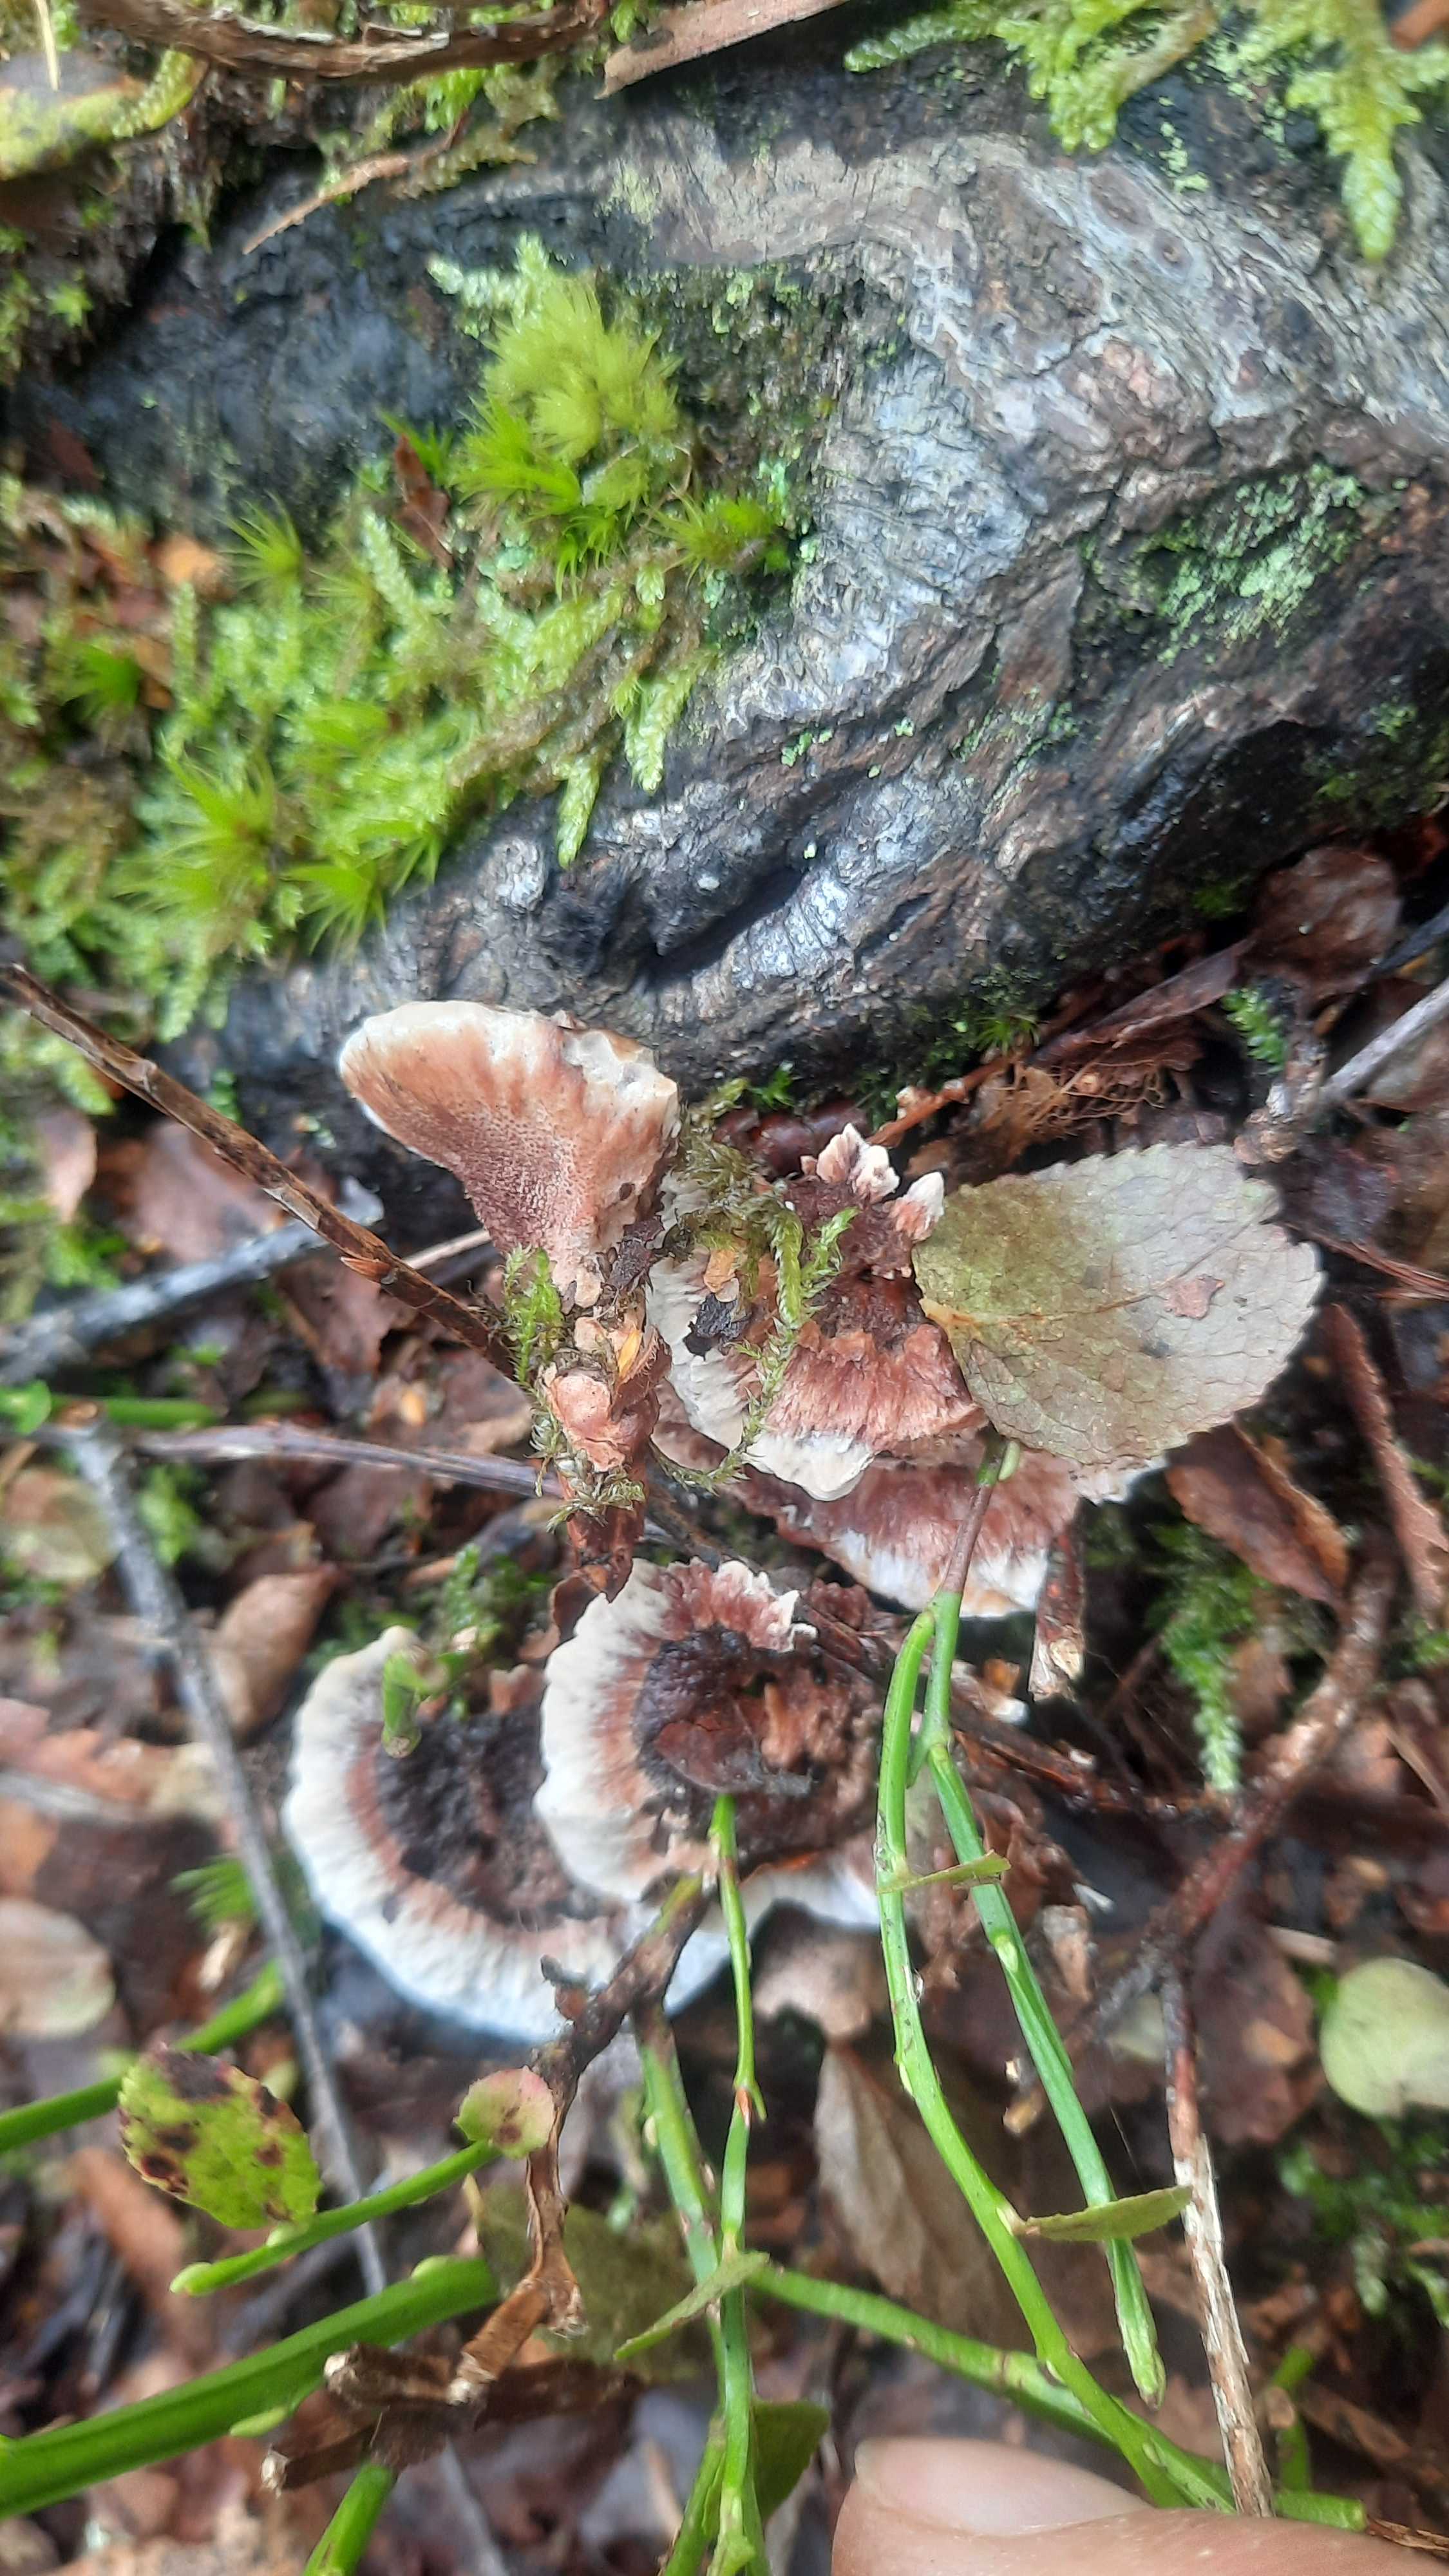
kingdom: Fungi
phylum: Basidiomycota
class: Agaricomycetes
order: Thelephorales
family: Bankeraceae
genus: Hydnellum
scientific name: Hydnellum
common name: korkpigsvamp
